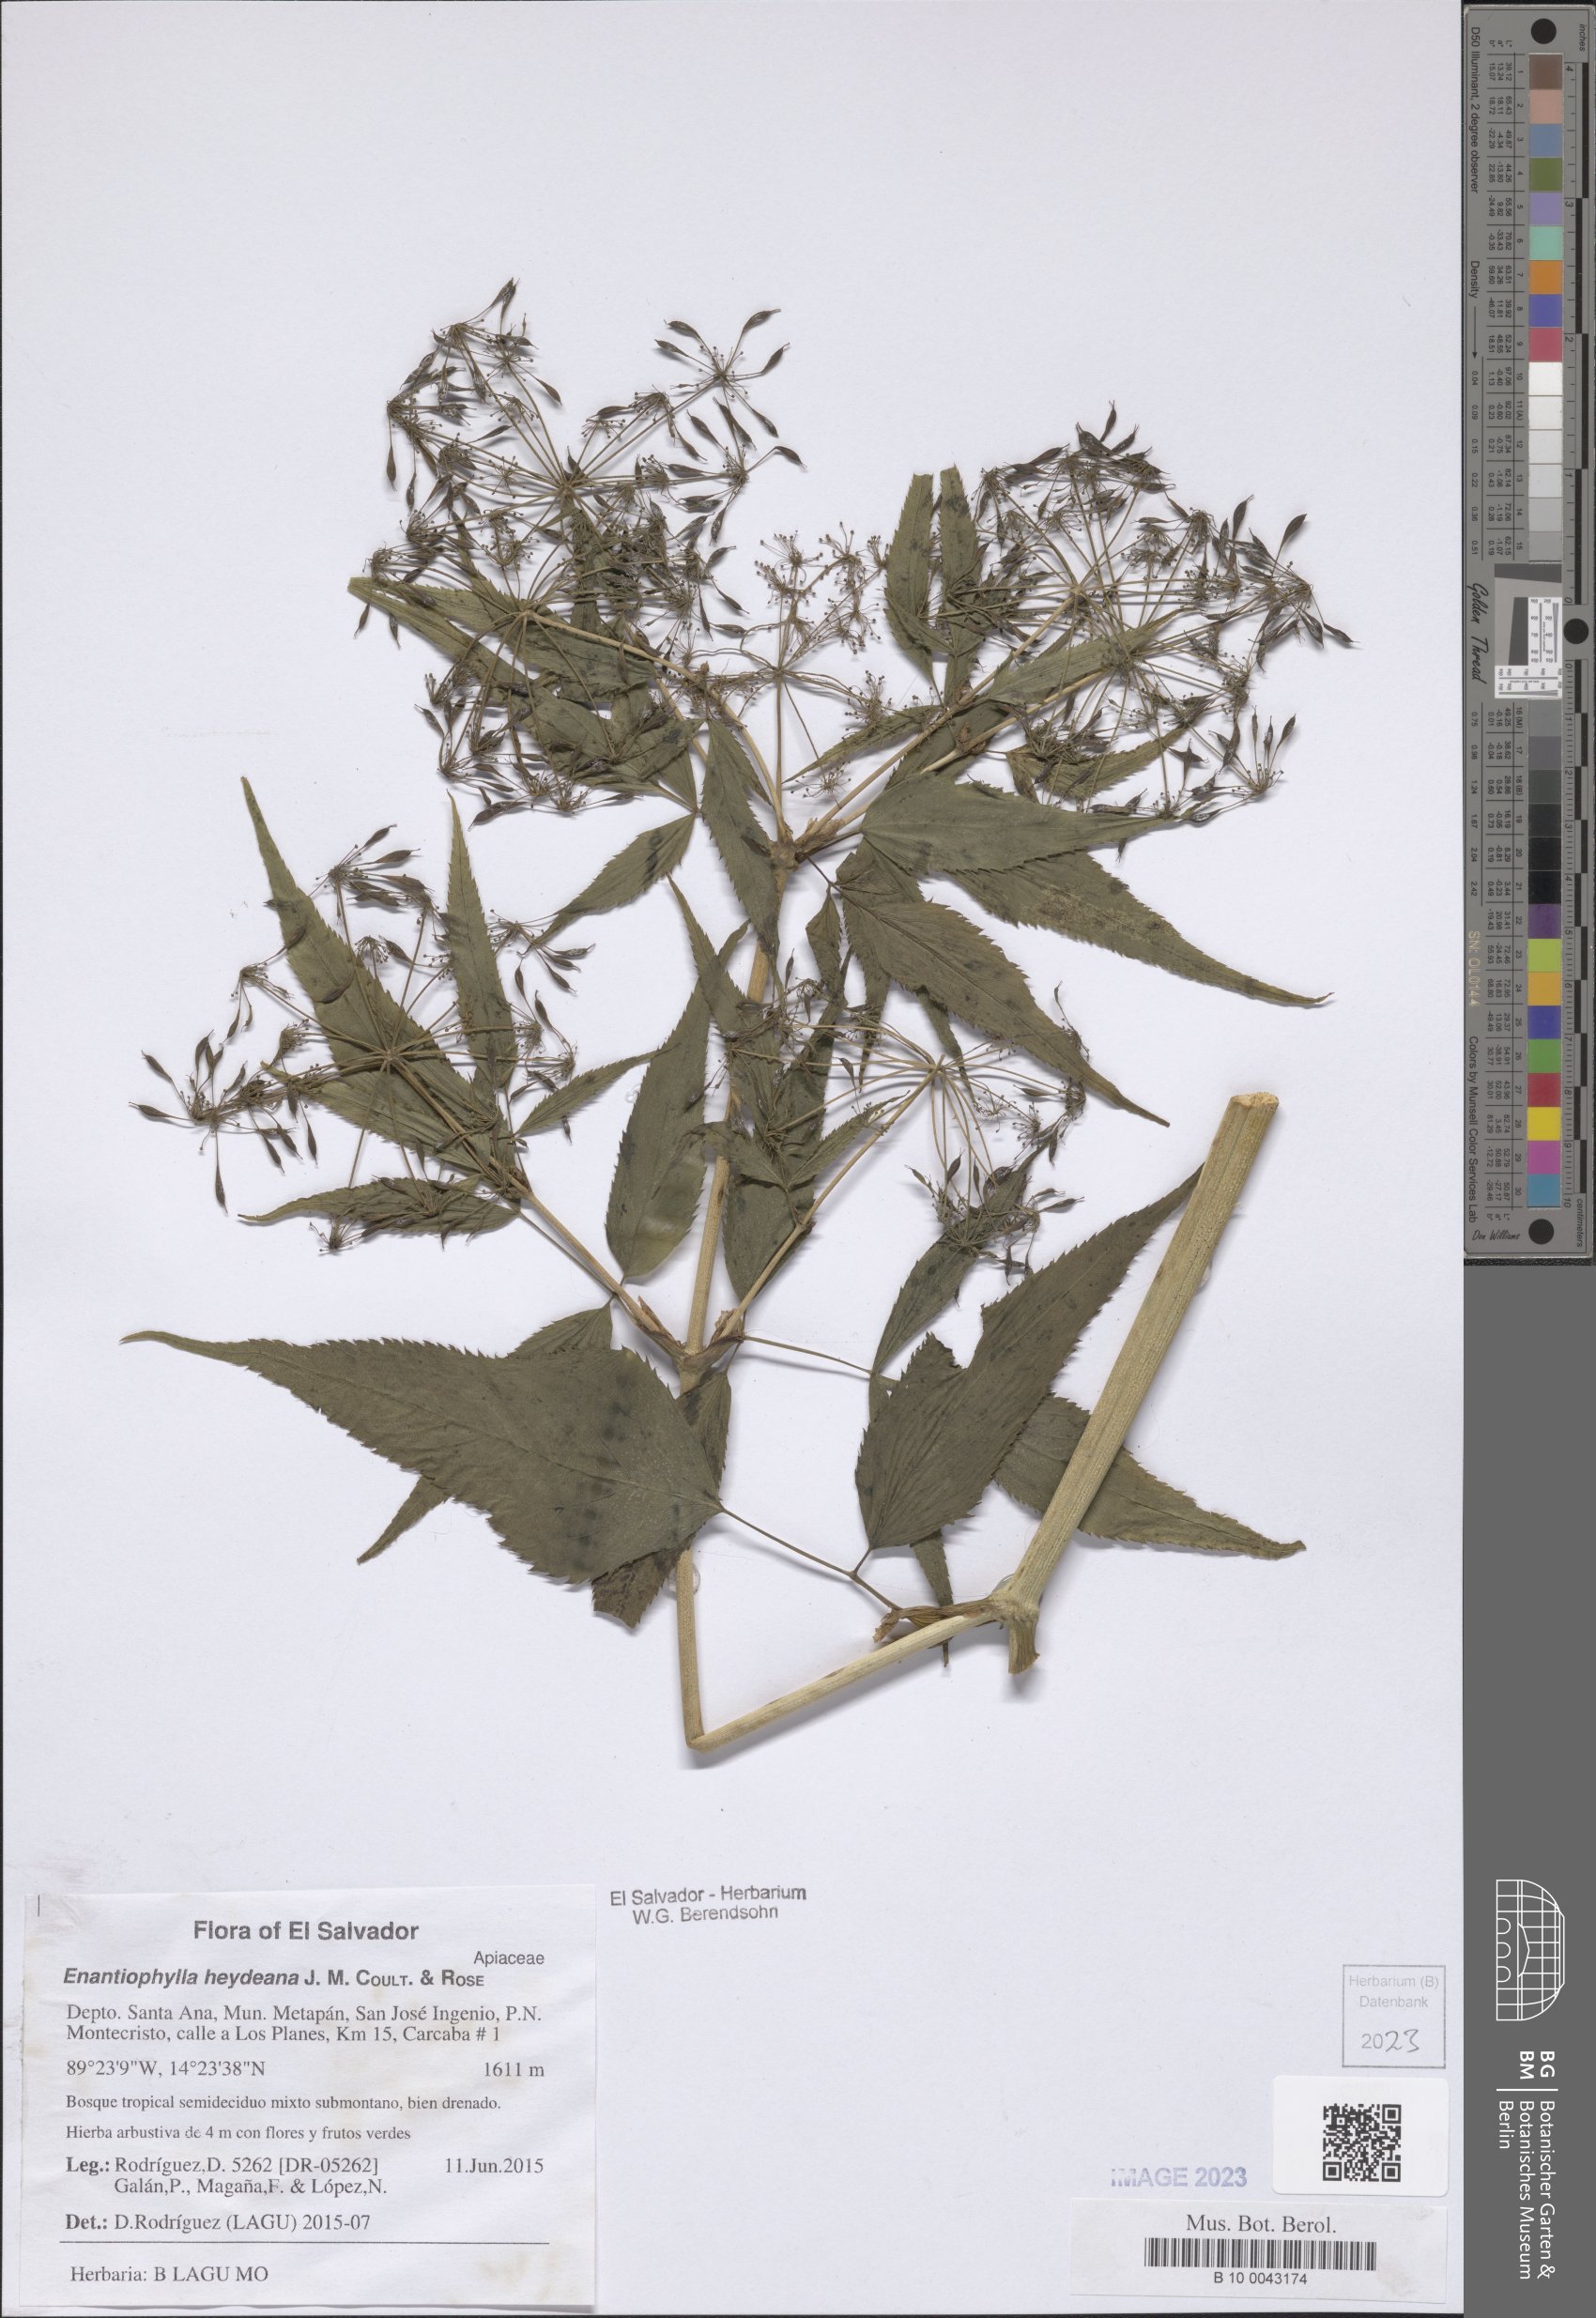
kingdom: Plantae
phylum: Tracheophyta
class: Magnoliopsida
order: Apiales
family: Apiaceae
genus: Enantiophylla
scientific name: Enantiophylla heydeana
